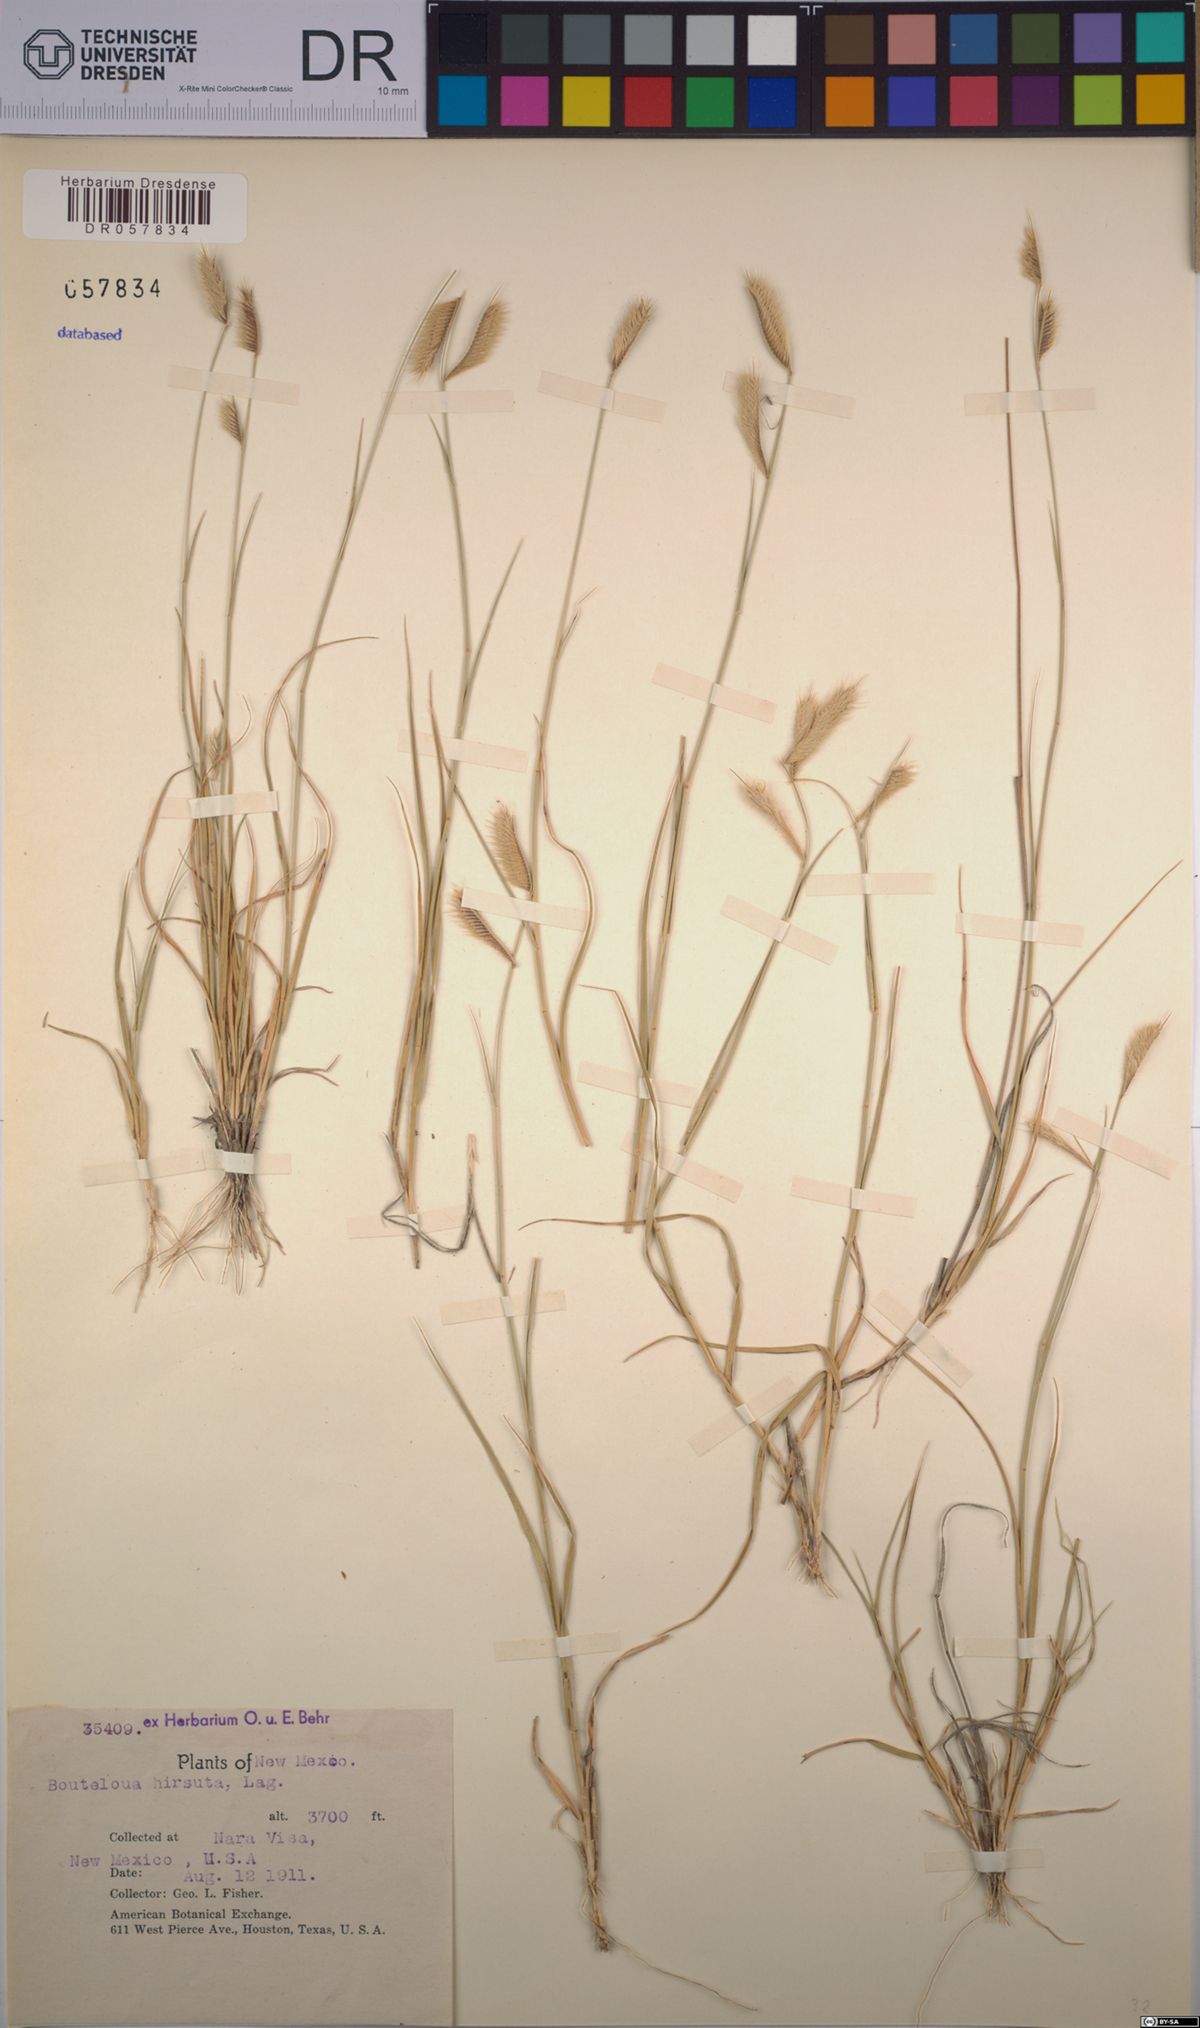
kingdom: Plantae
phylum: Tracheophyta
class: Liliopsida
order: Poales
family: Poaceae
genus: Bouteloua
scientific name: Bouteloua hirsuta
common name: Hairy grama
